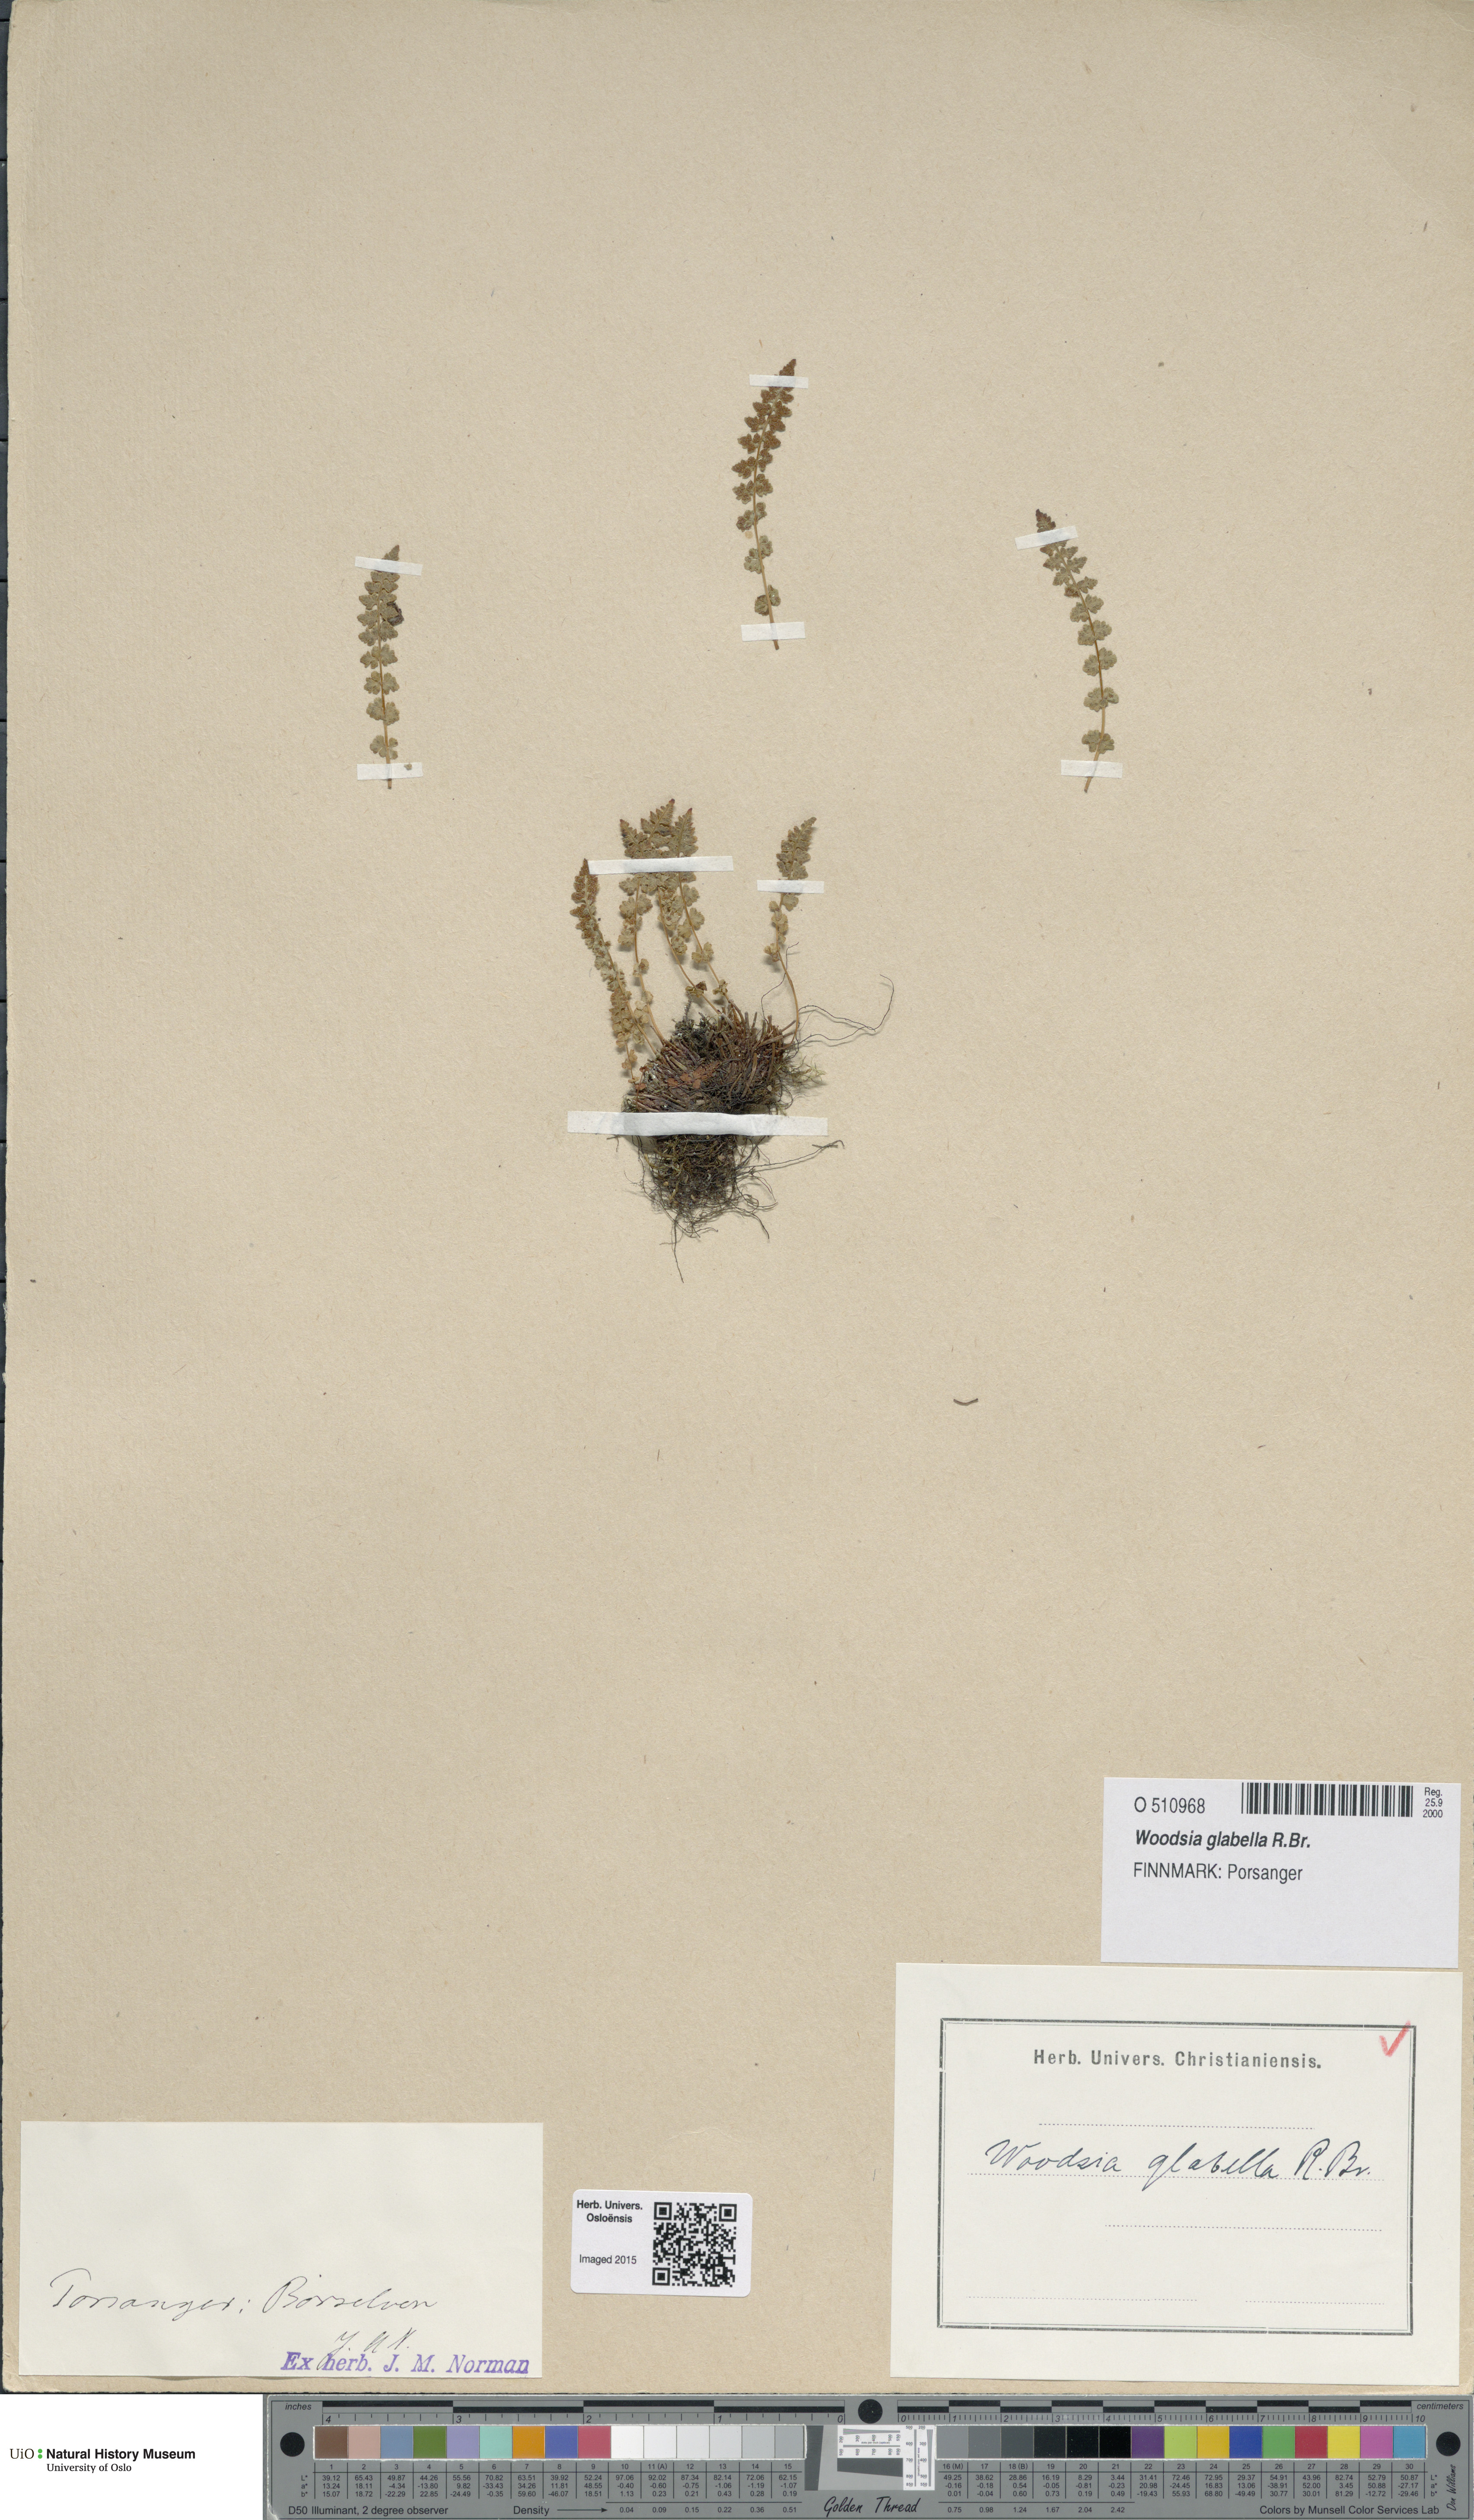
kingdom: Plantae
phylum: Tracheophyta
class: Polypodiopsida
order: Polypodiales
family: Woodsiaceae
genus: Woodsia
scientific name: Woodsia glabella
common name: Smooth woodsia
